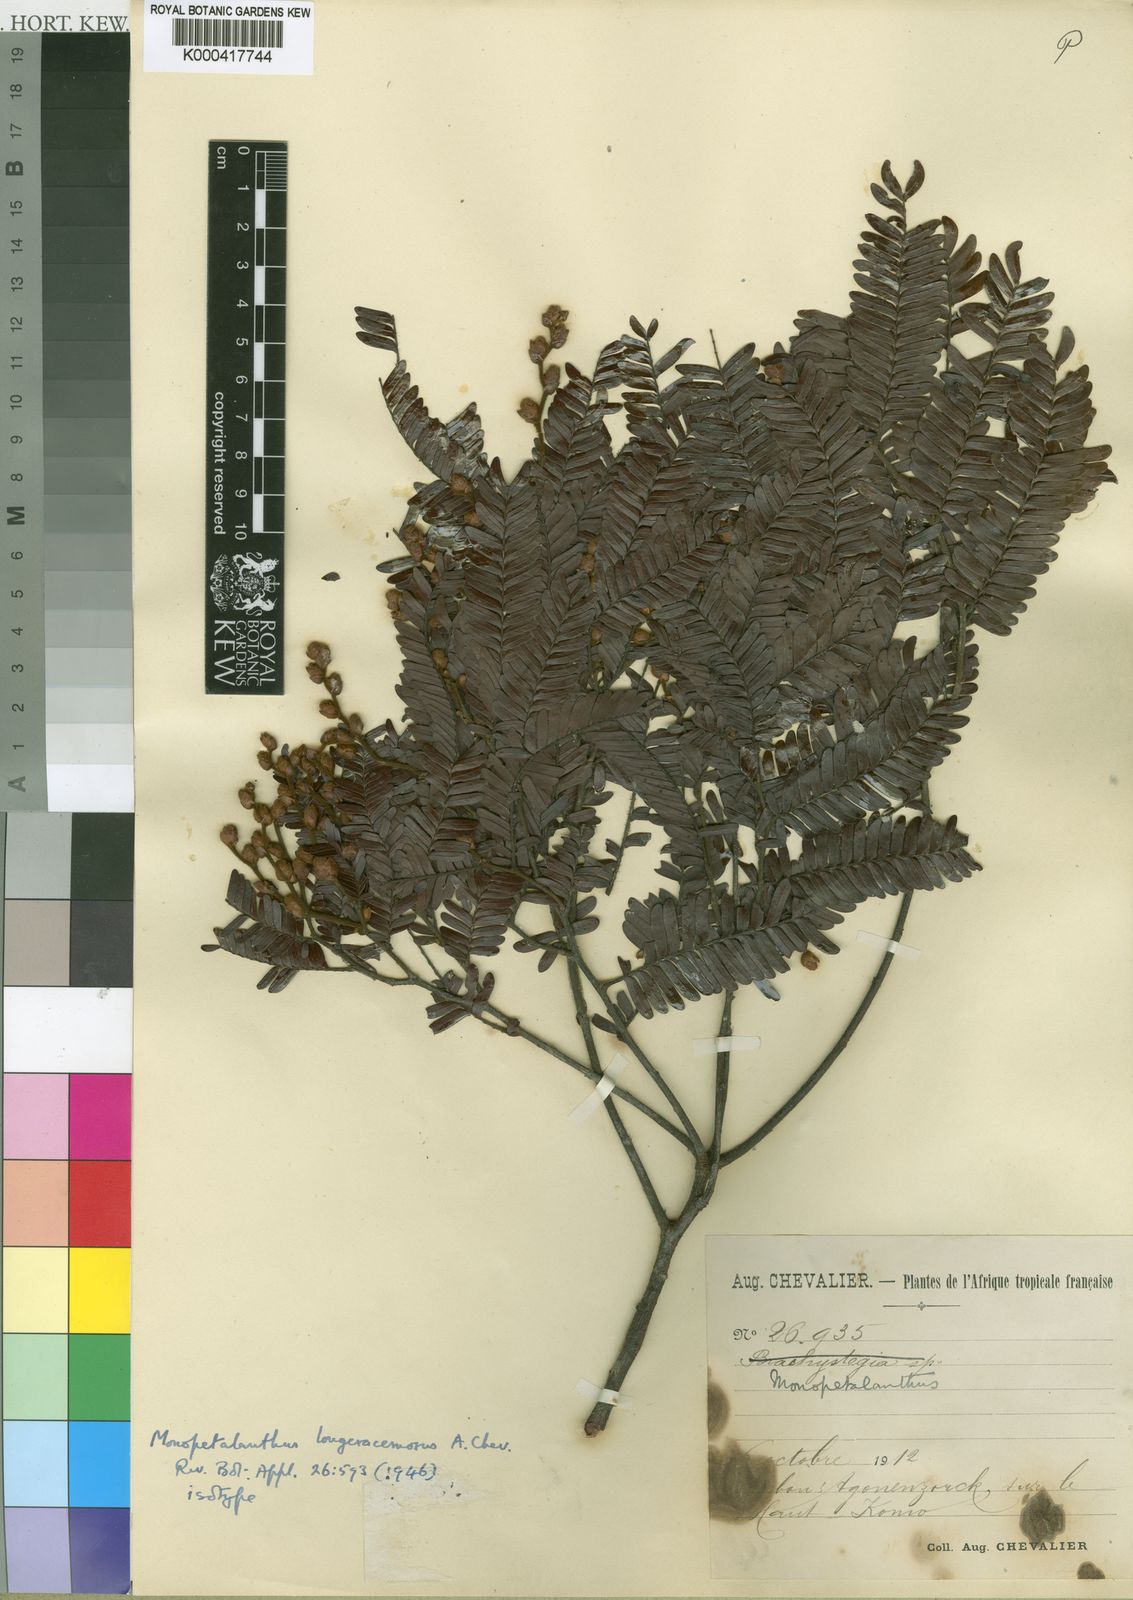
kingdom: Plantae
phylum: Tracheophyta
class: Magnoliopsida
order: Fabales
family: Fabaceae
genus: Tetraberlinia
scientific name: Tetraberlinia longiracemosa
